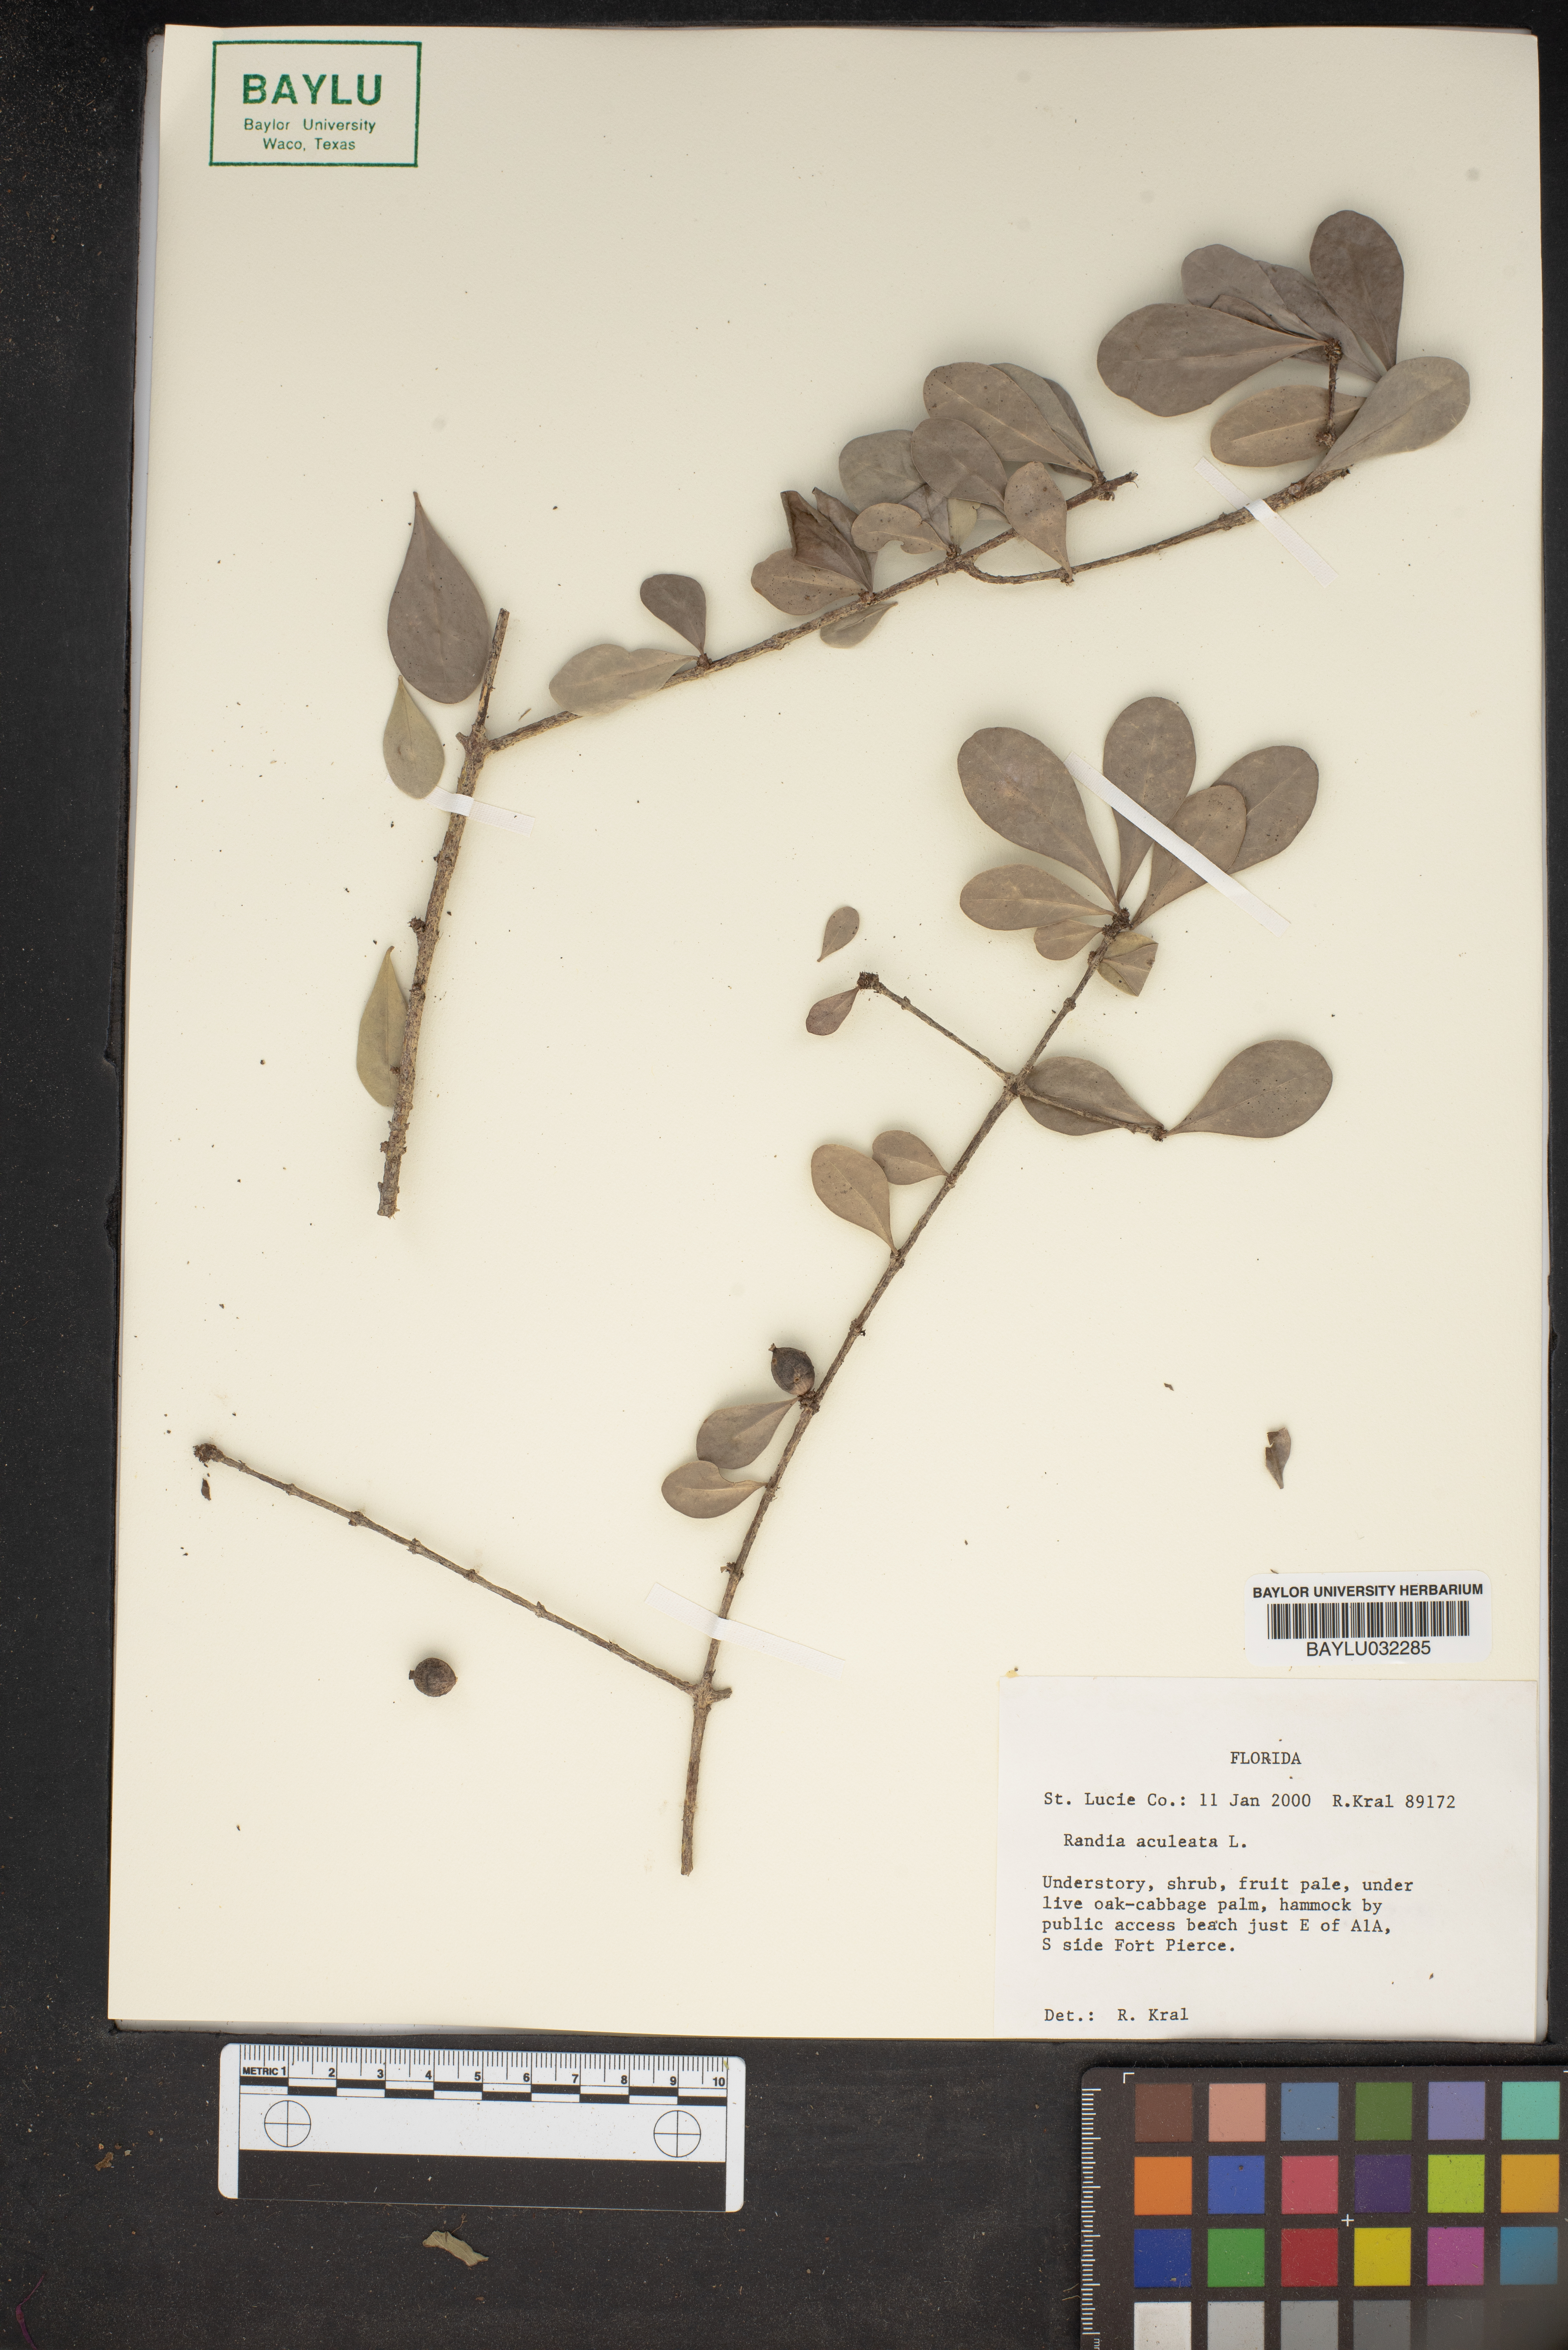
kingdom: Plantae
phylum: Tracheophyta
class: Magnoliopsida
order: Gentianales
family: Rubiaceae
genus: Randia
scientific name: Randia aculeata
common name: Inkberry
